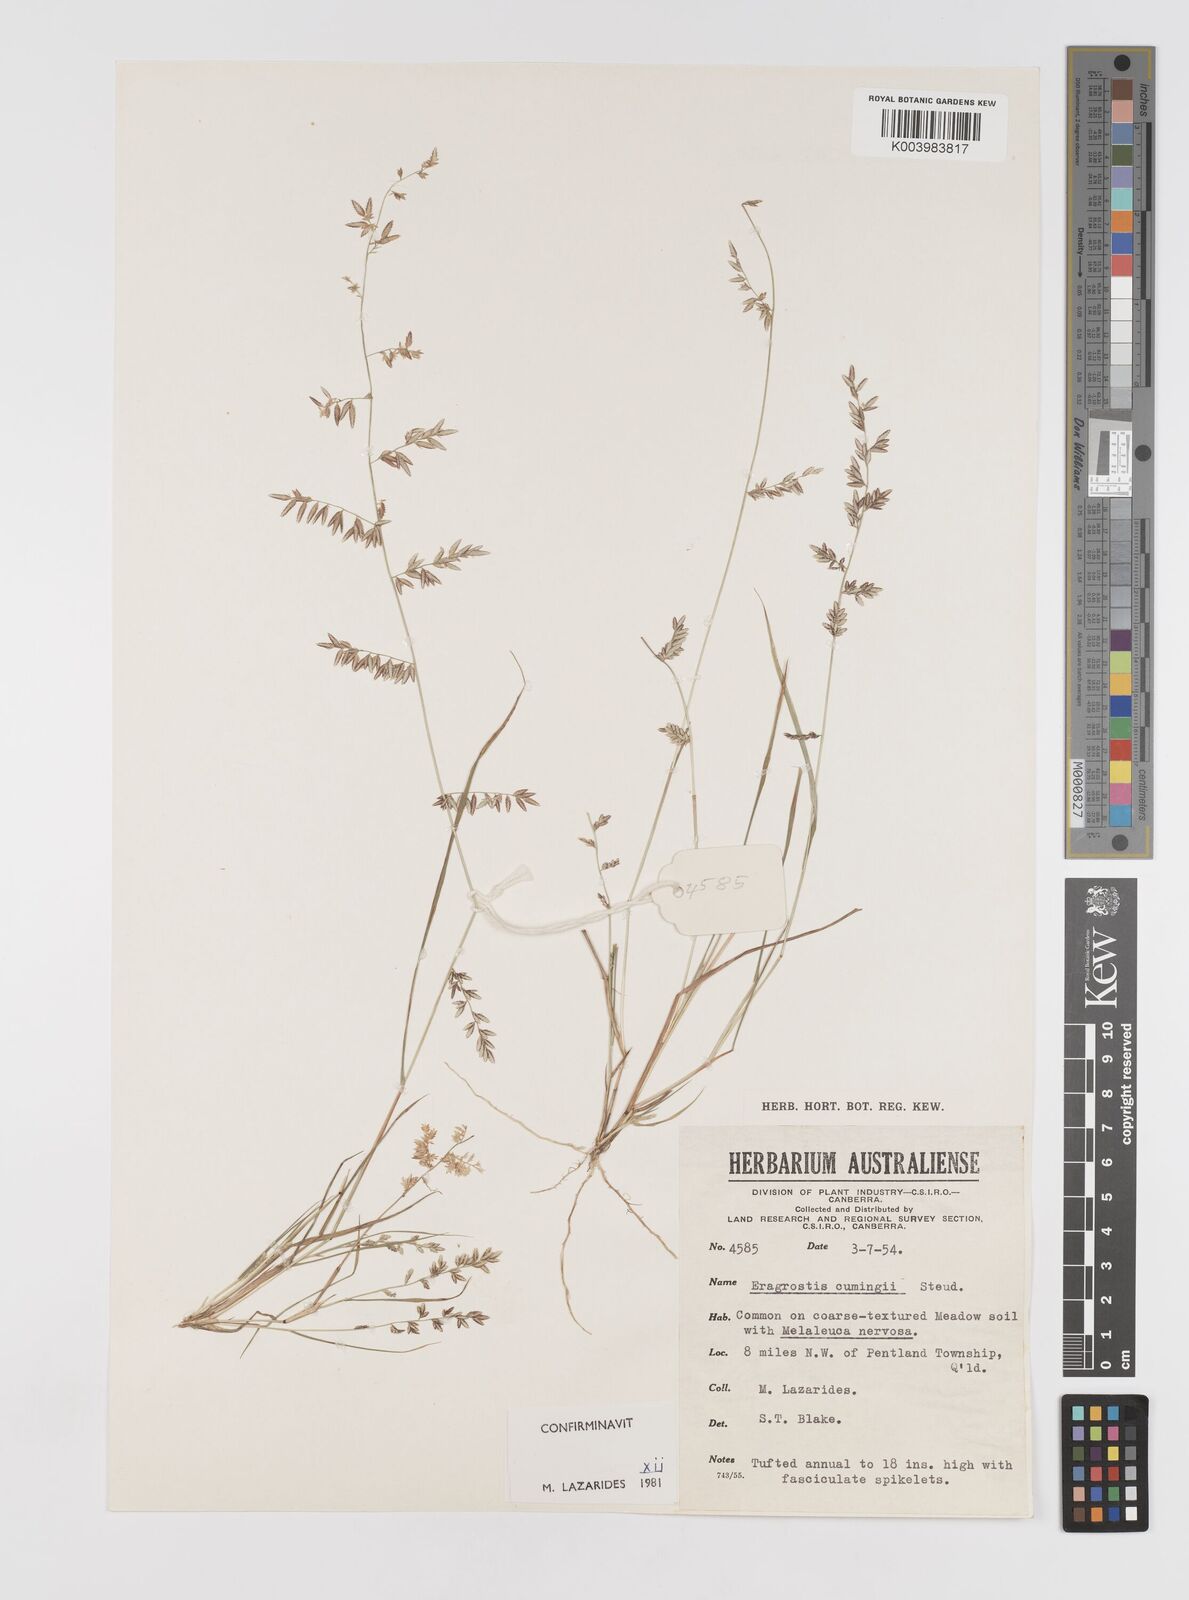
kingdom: Plantae
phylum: Tracheophyta
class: Liliopsida
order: Poales
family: Poaceae
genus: Eragrostis
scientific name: Eragrostis cumingii
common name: Cuming's lovegrass
